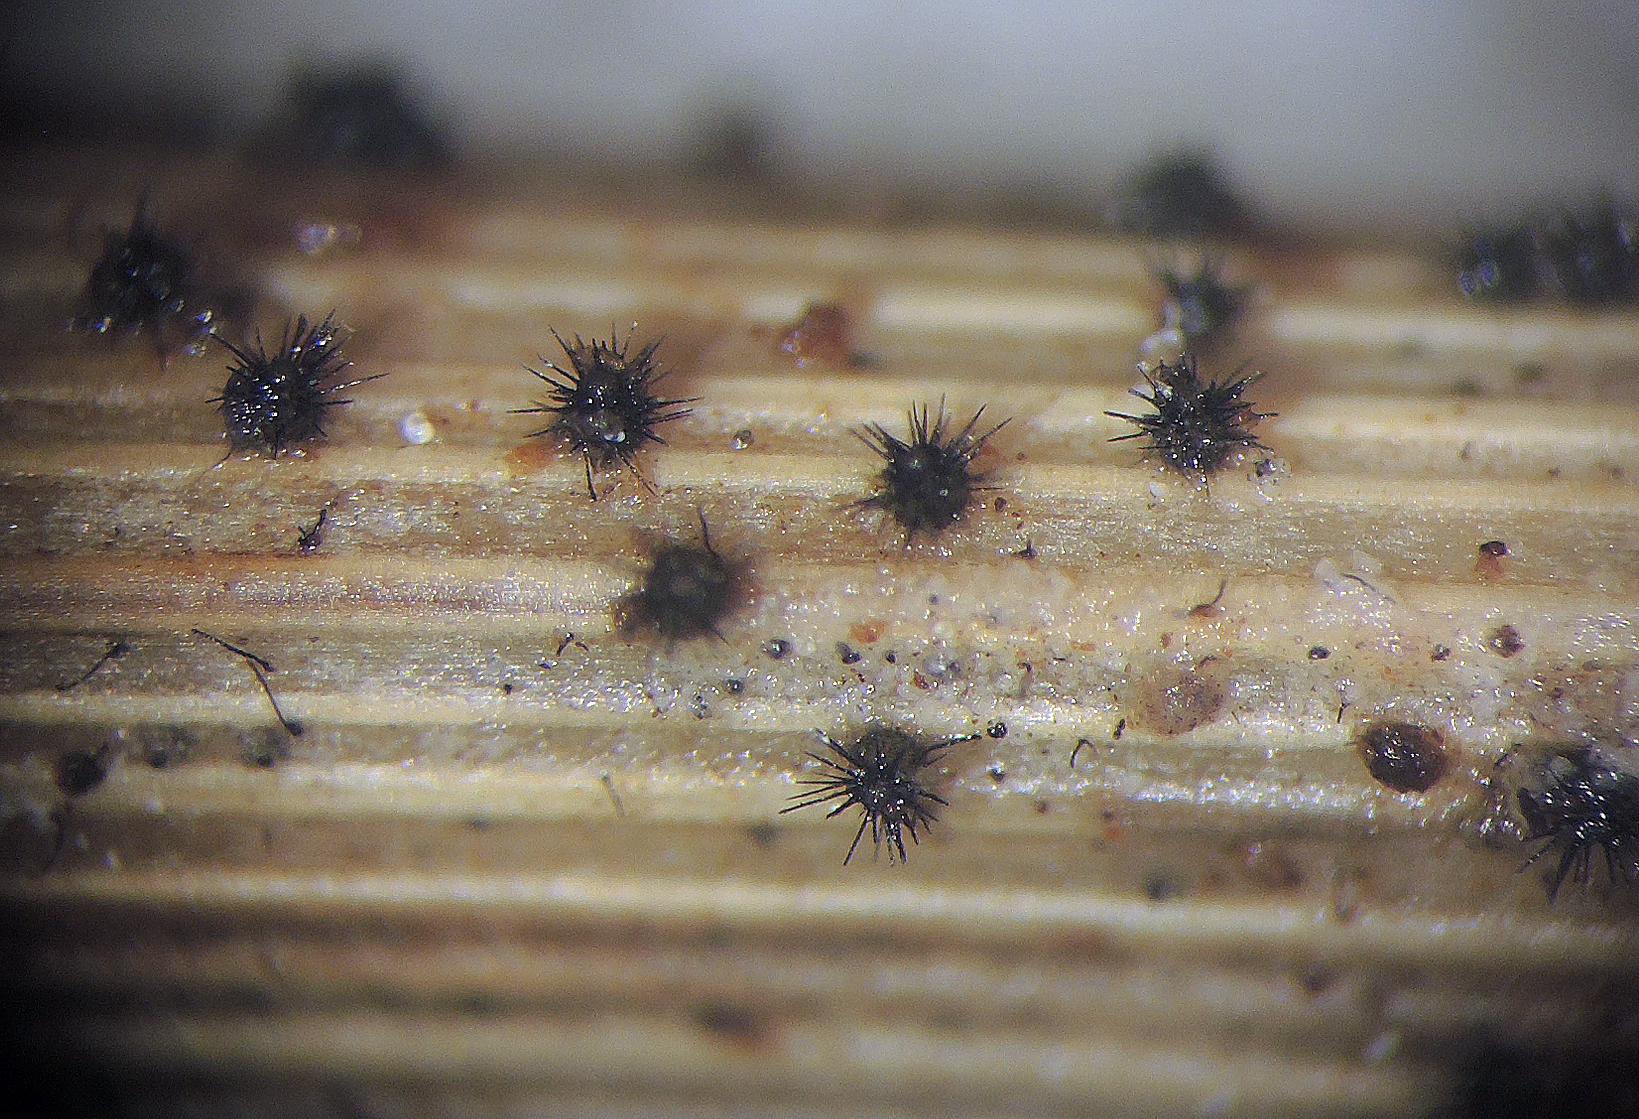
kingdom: Fungi
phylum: Ascomycota
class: Dothideomycetes
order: Tubeufiales
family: Tubeufiaceae
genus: Acanthophiobolus
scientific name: Acanthophiobolus helicosporus
